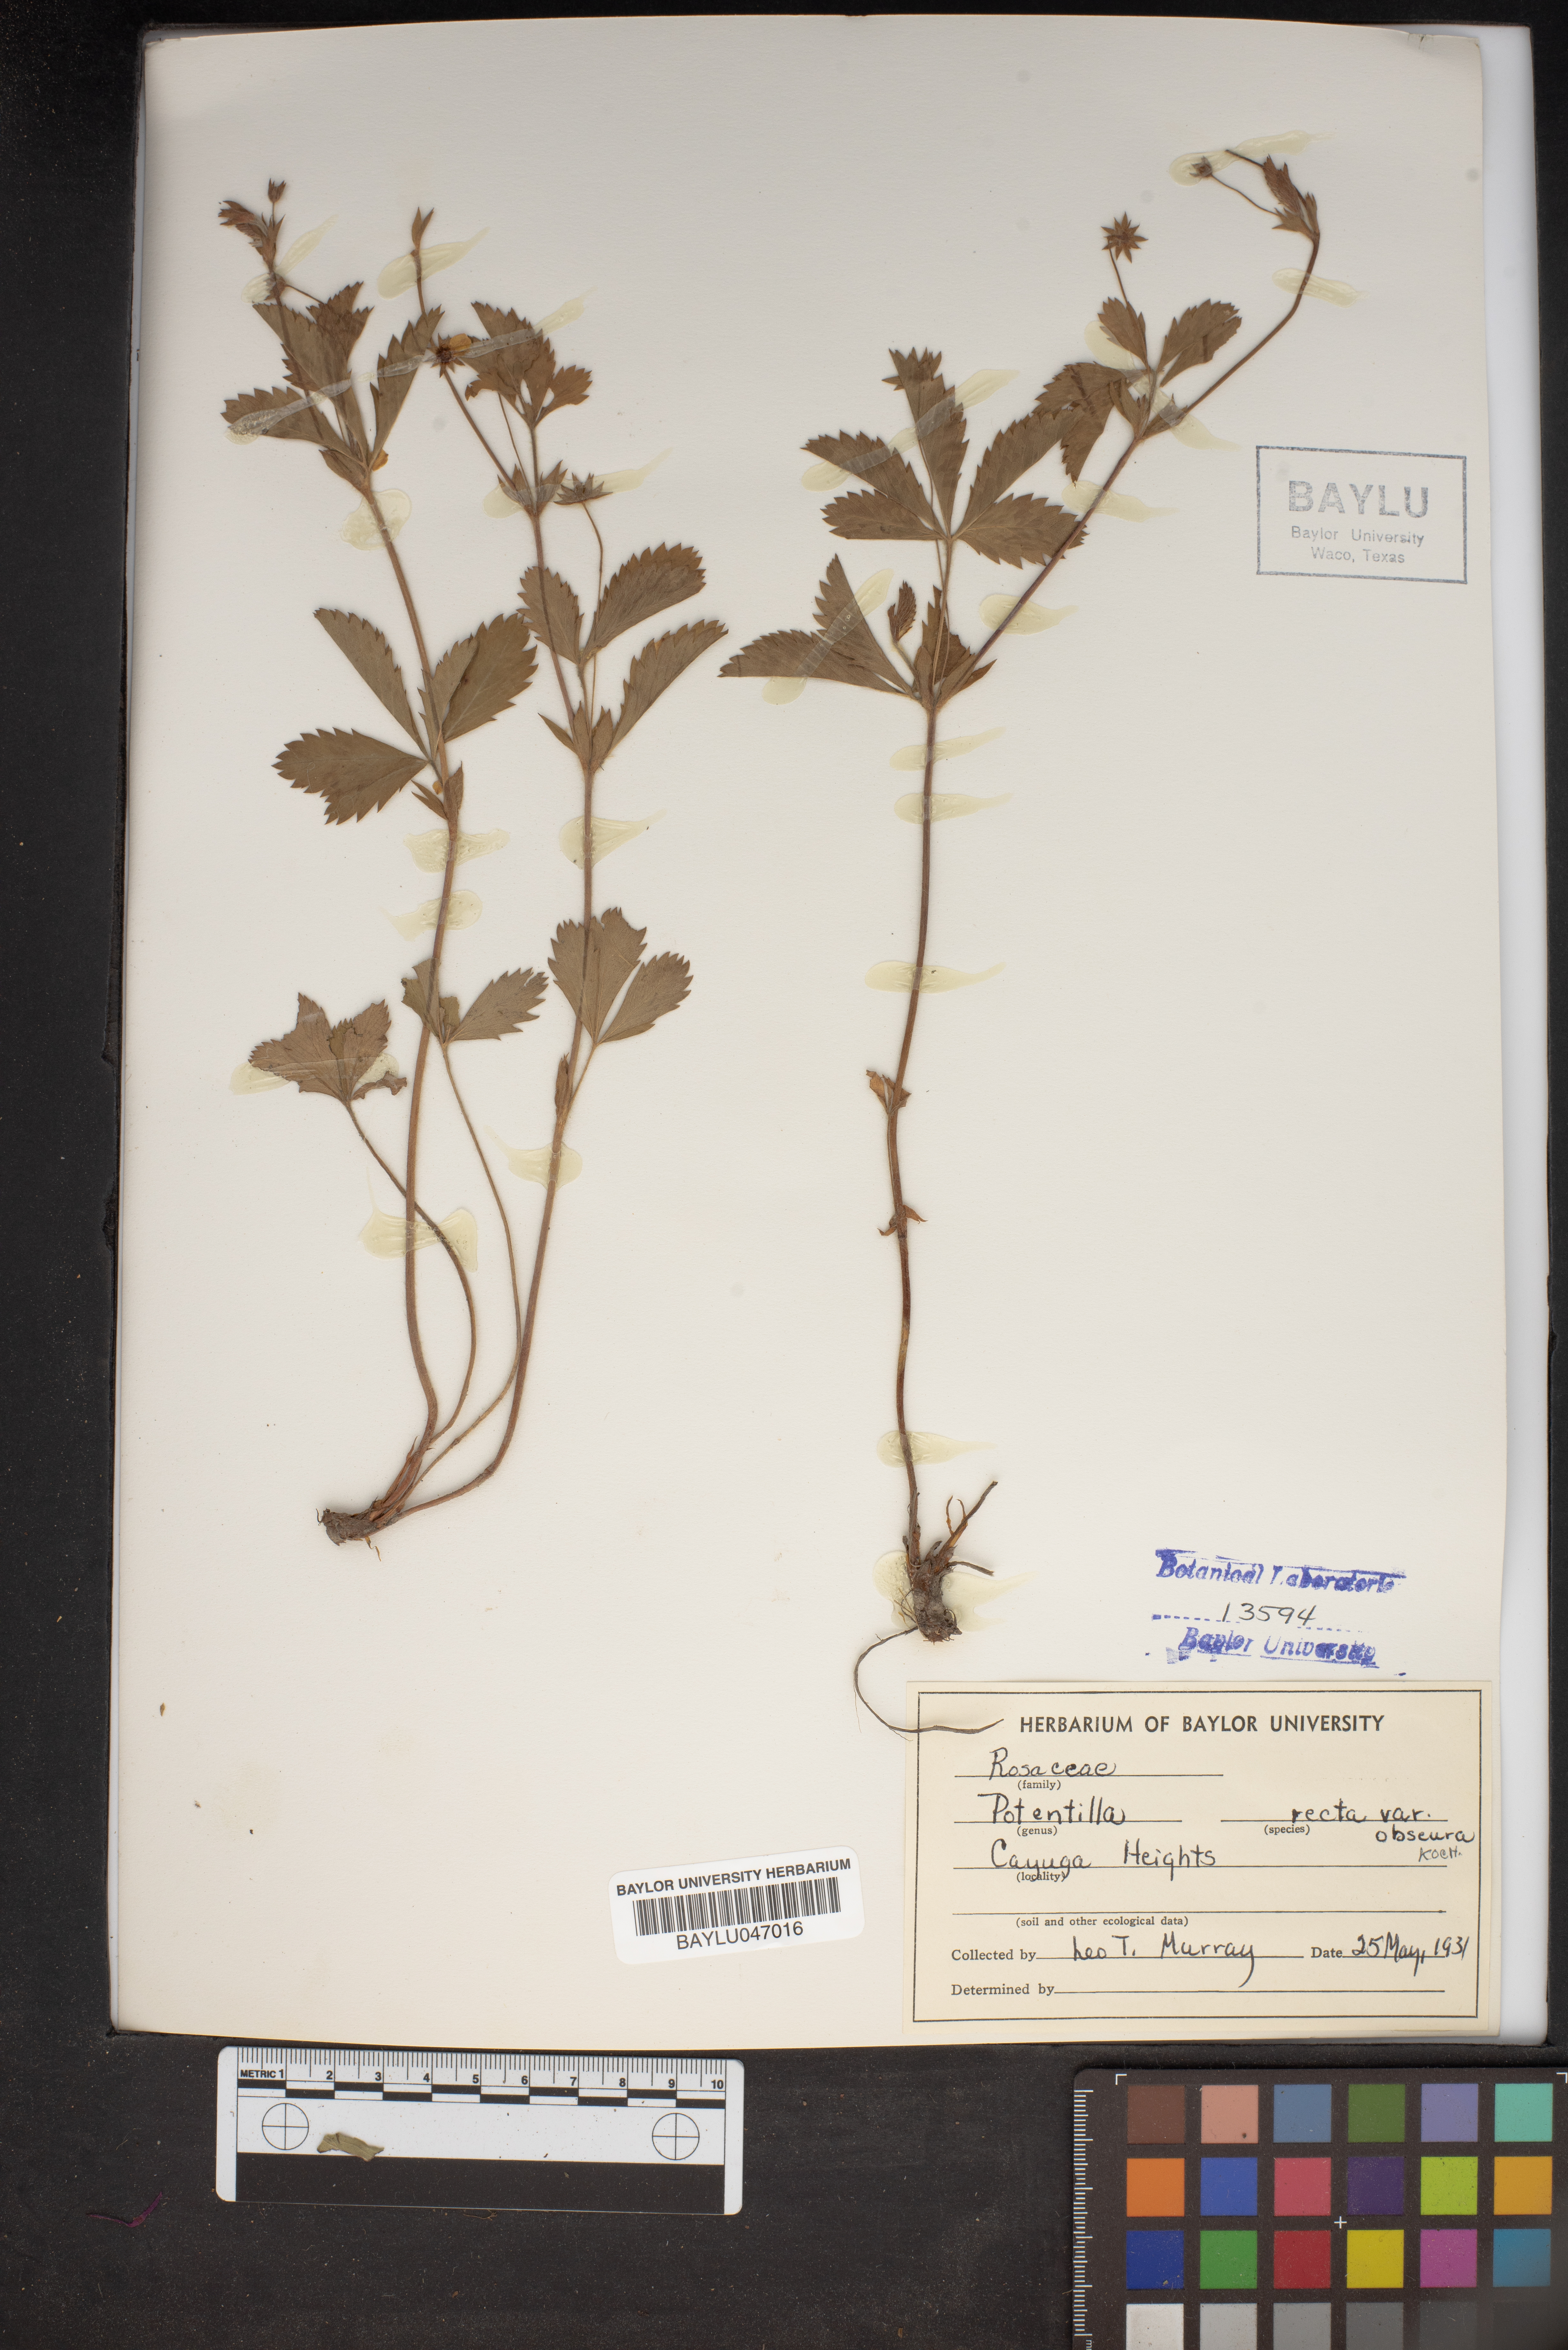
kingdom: Plantae
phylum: Tracheophyta
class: Magnoliopsida
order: Rosales
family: Rosaceae
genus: Potentilla
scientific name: Potentilla recta
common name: Sulphur cinquefoil
